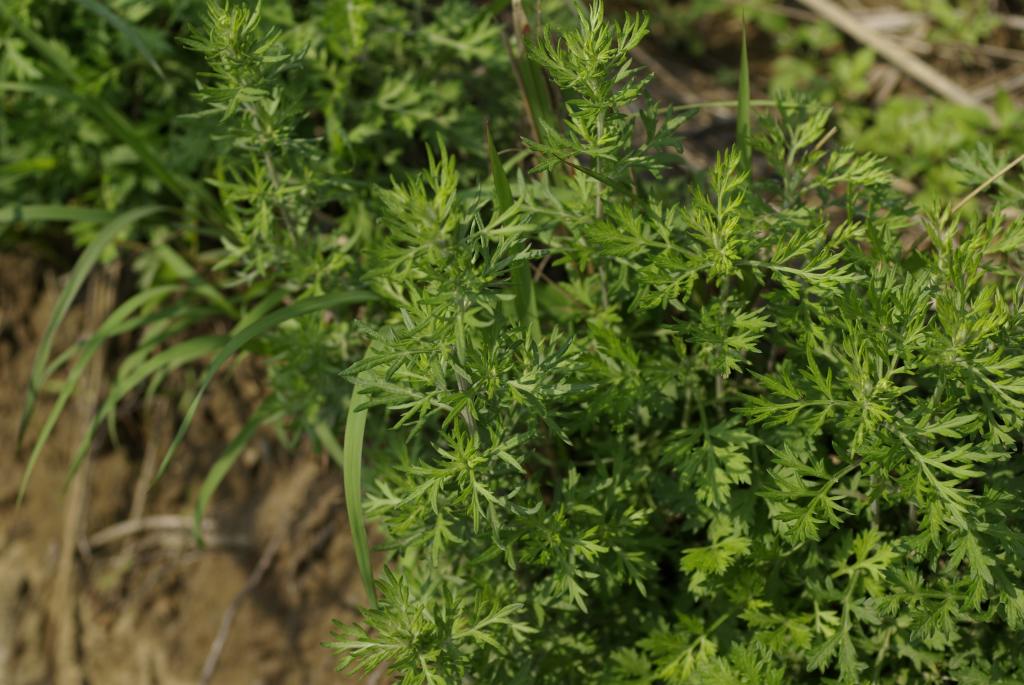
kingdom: Plantae
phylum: Tracheophyta
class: Magnoliopsida
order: Asterales
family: Asteraceae
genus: Artemisia
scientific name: Artemisia indica
